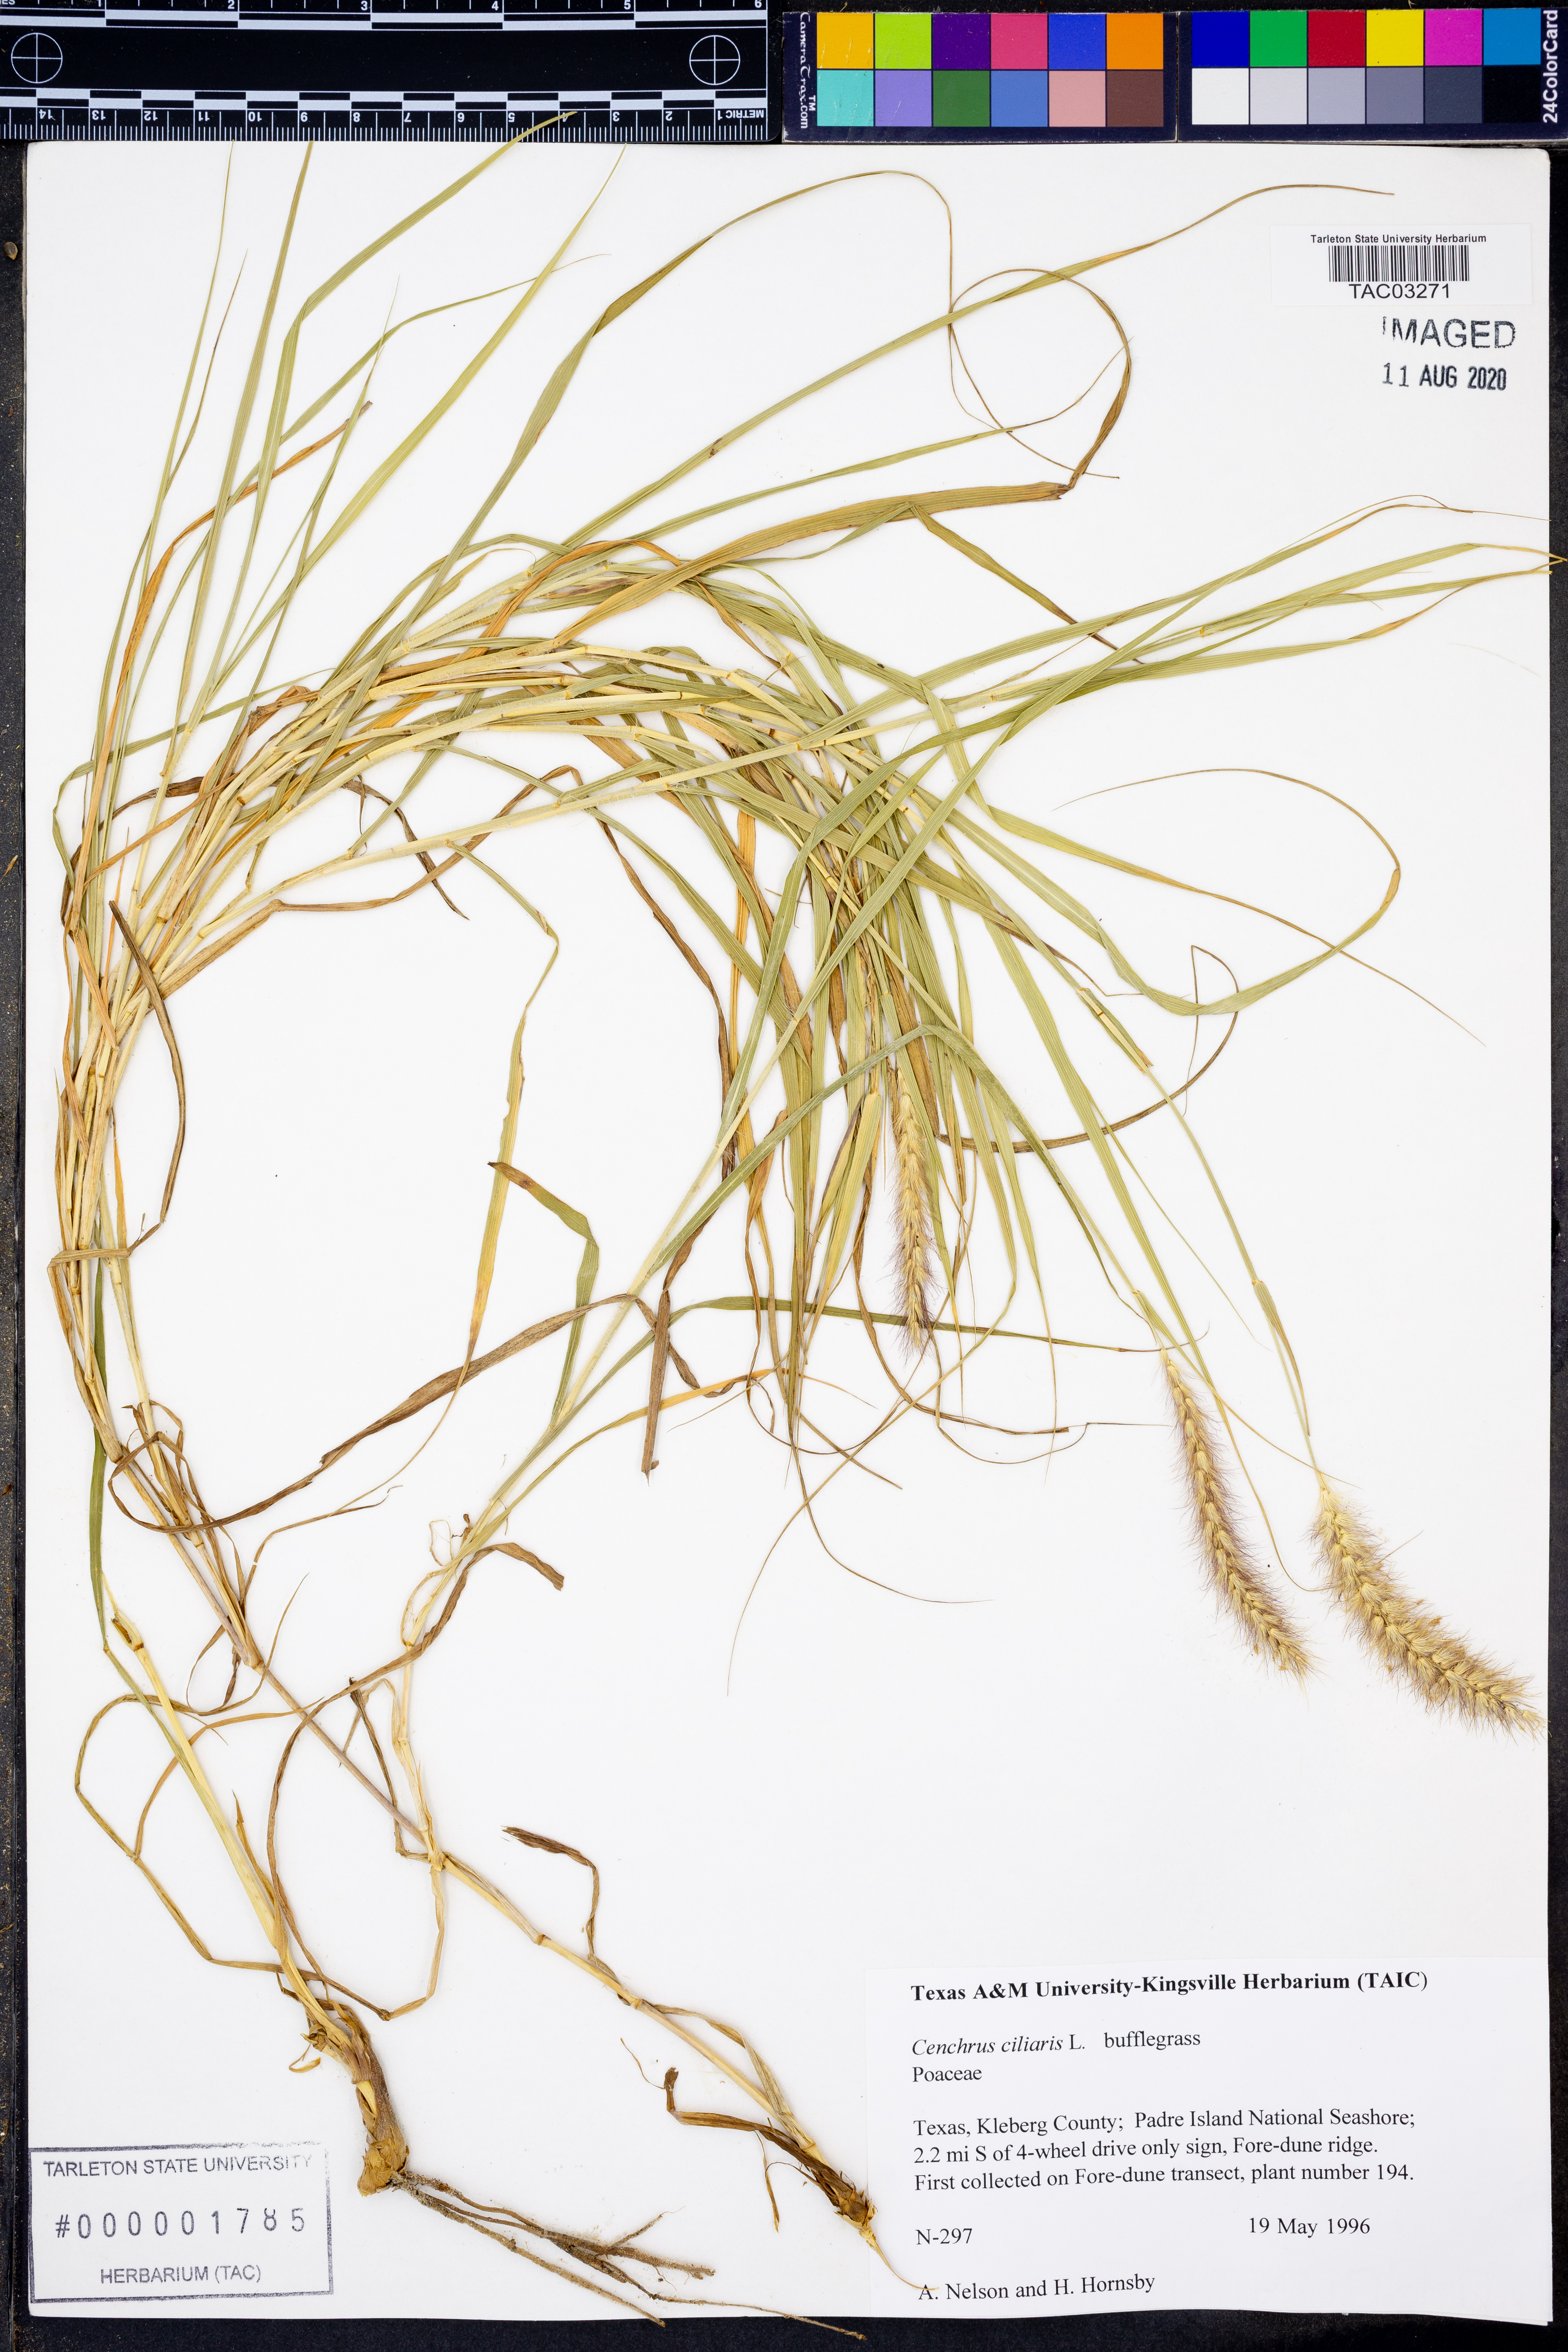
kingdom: Plantae
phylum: Tracheophyta
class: Liliopsida
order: Poales
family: Poaceae
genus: Cenchrus
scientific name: Cenchrus ciliaris
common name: Buffelgrass
